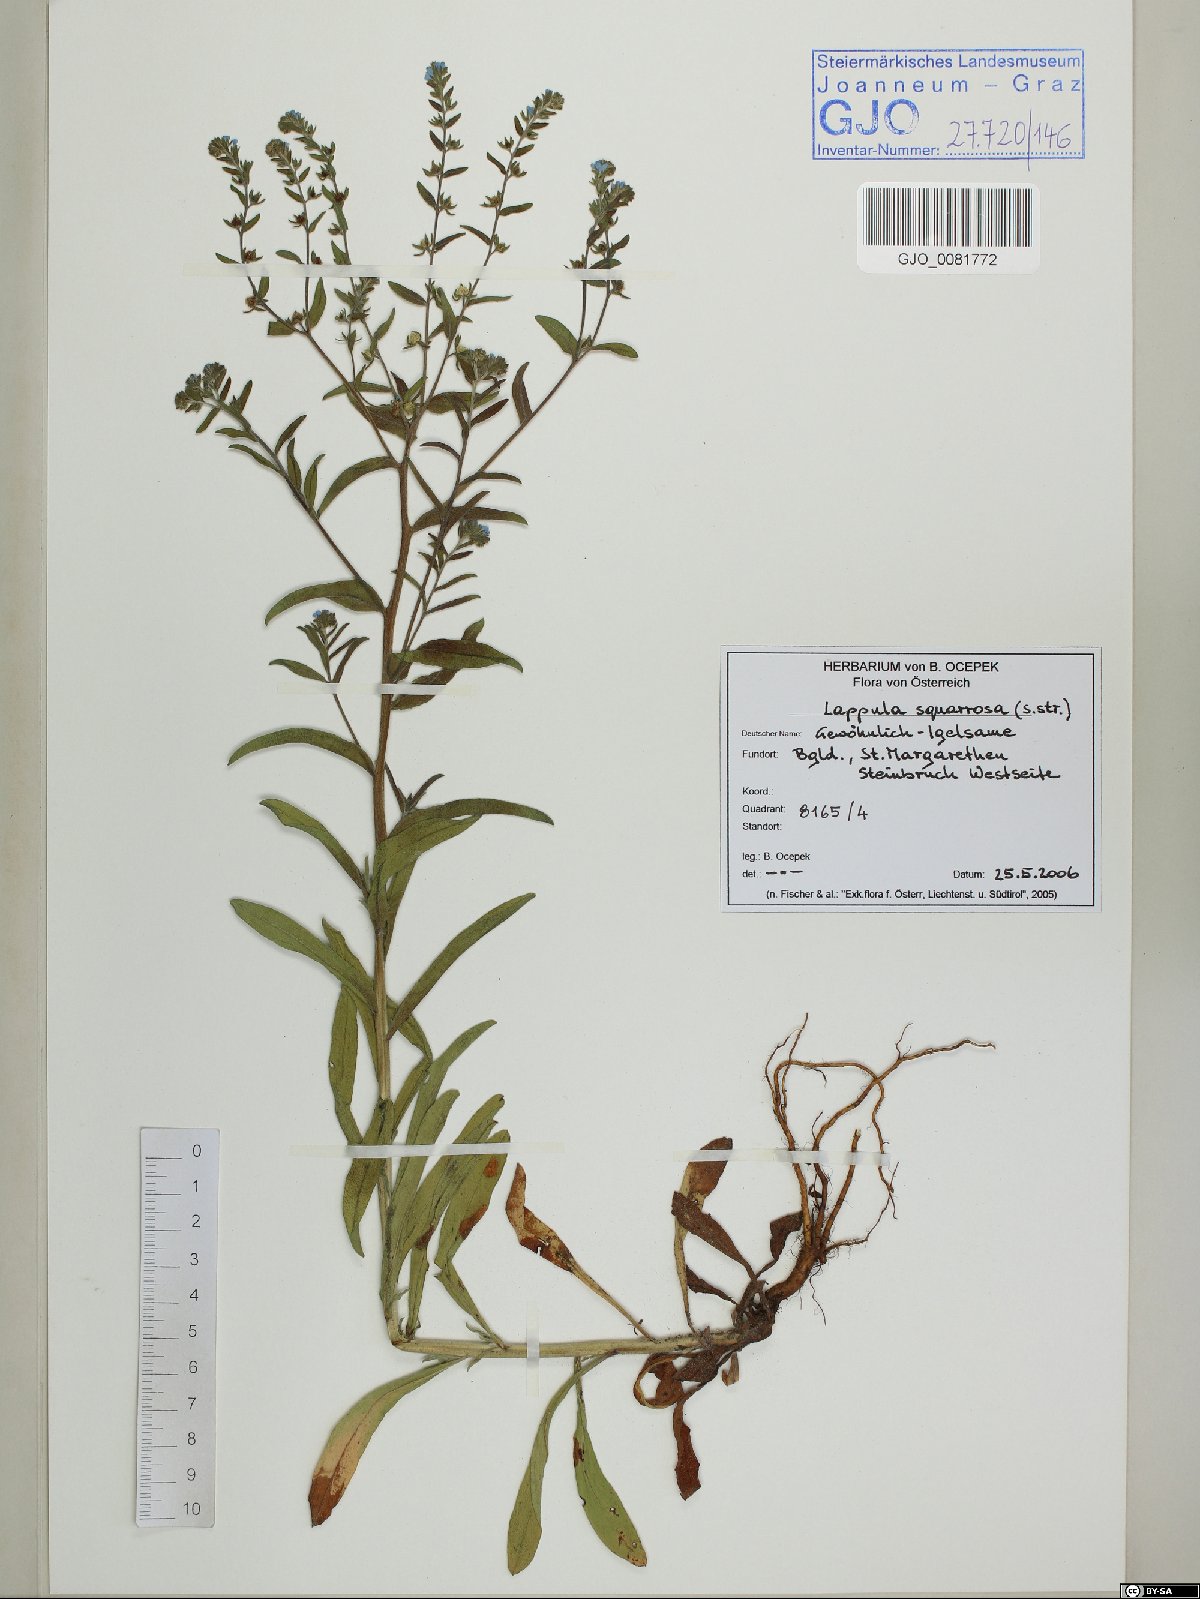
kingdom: Plantae
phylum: Tracheophyta
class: Magnoliopsida
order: Boraginales
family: Boraginaceae
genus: Lappula
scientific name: Lappula squarrosa
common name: European stickseed
